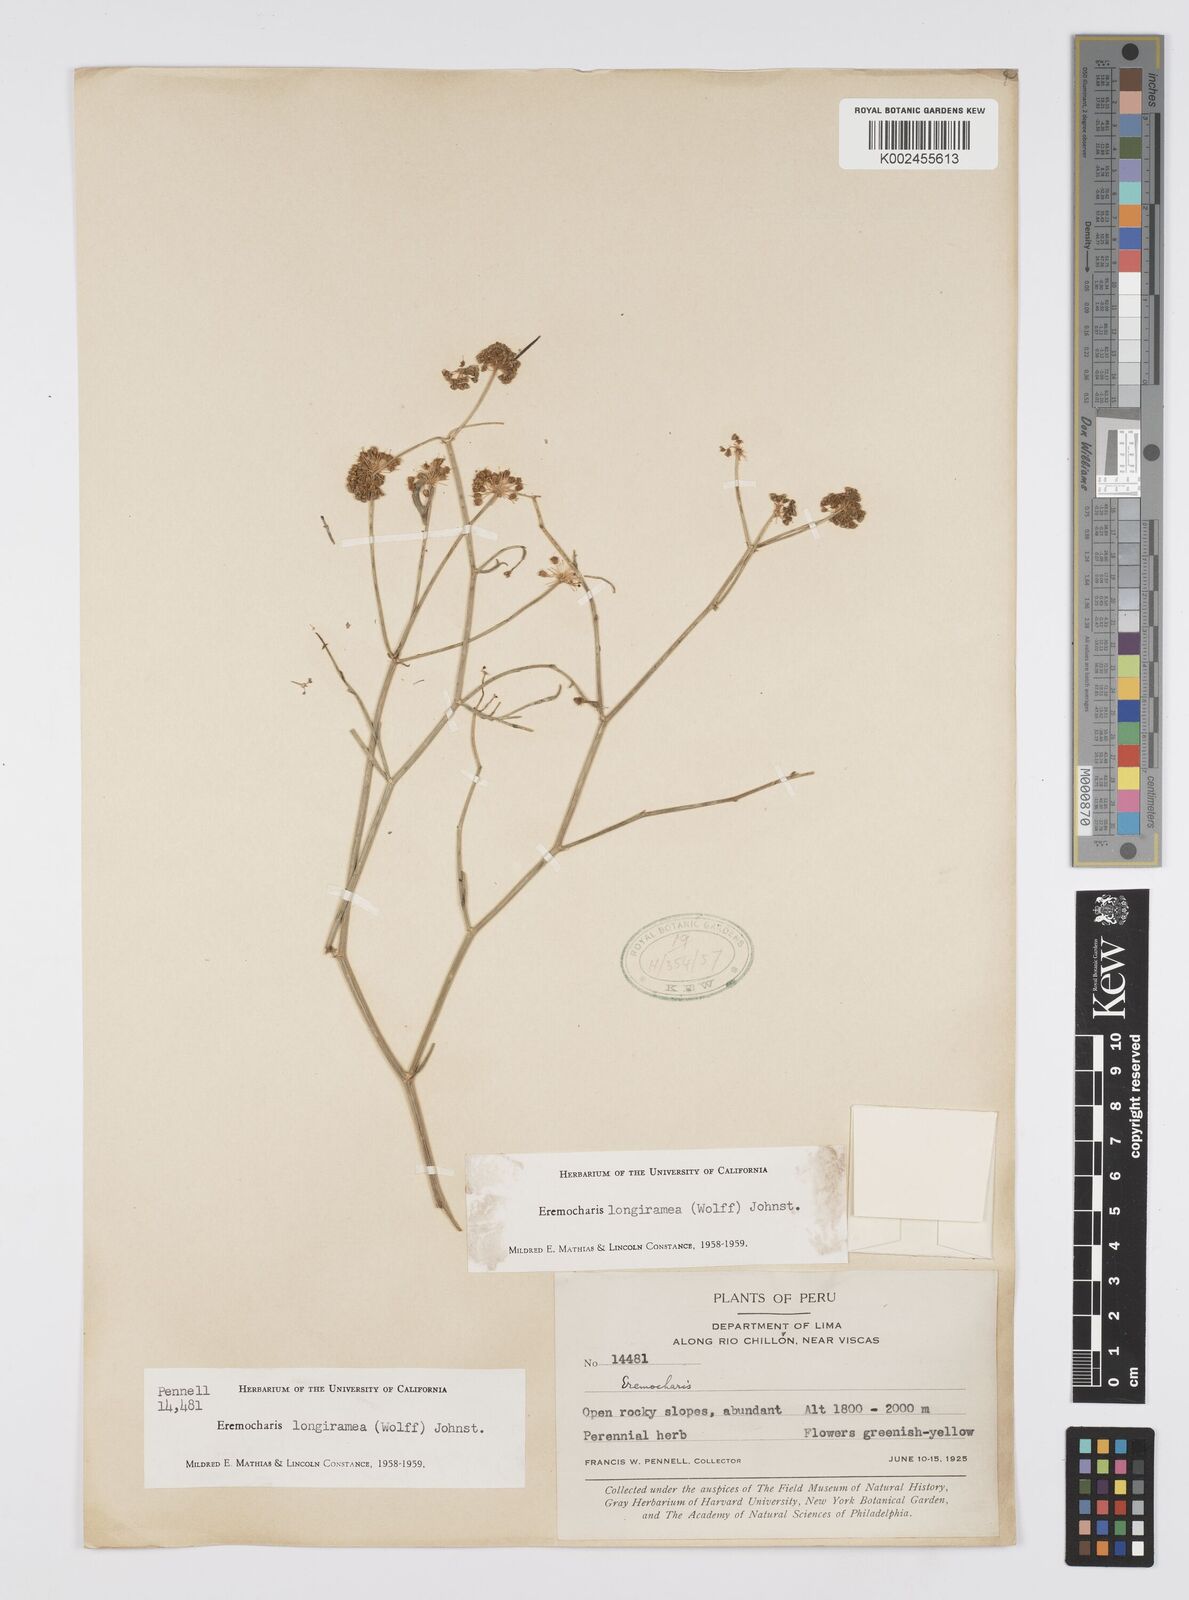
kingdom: Plantae
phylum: Tracheophyta
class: Magnoliopsida
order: Apiales
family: Apiaceae
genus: Eremocharis
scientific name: Eremocharis longiramea
